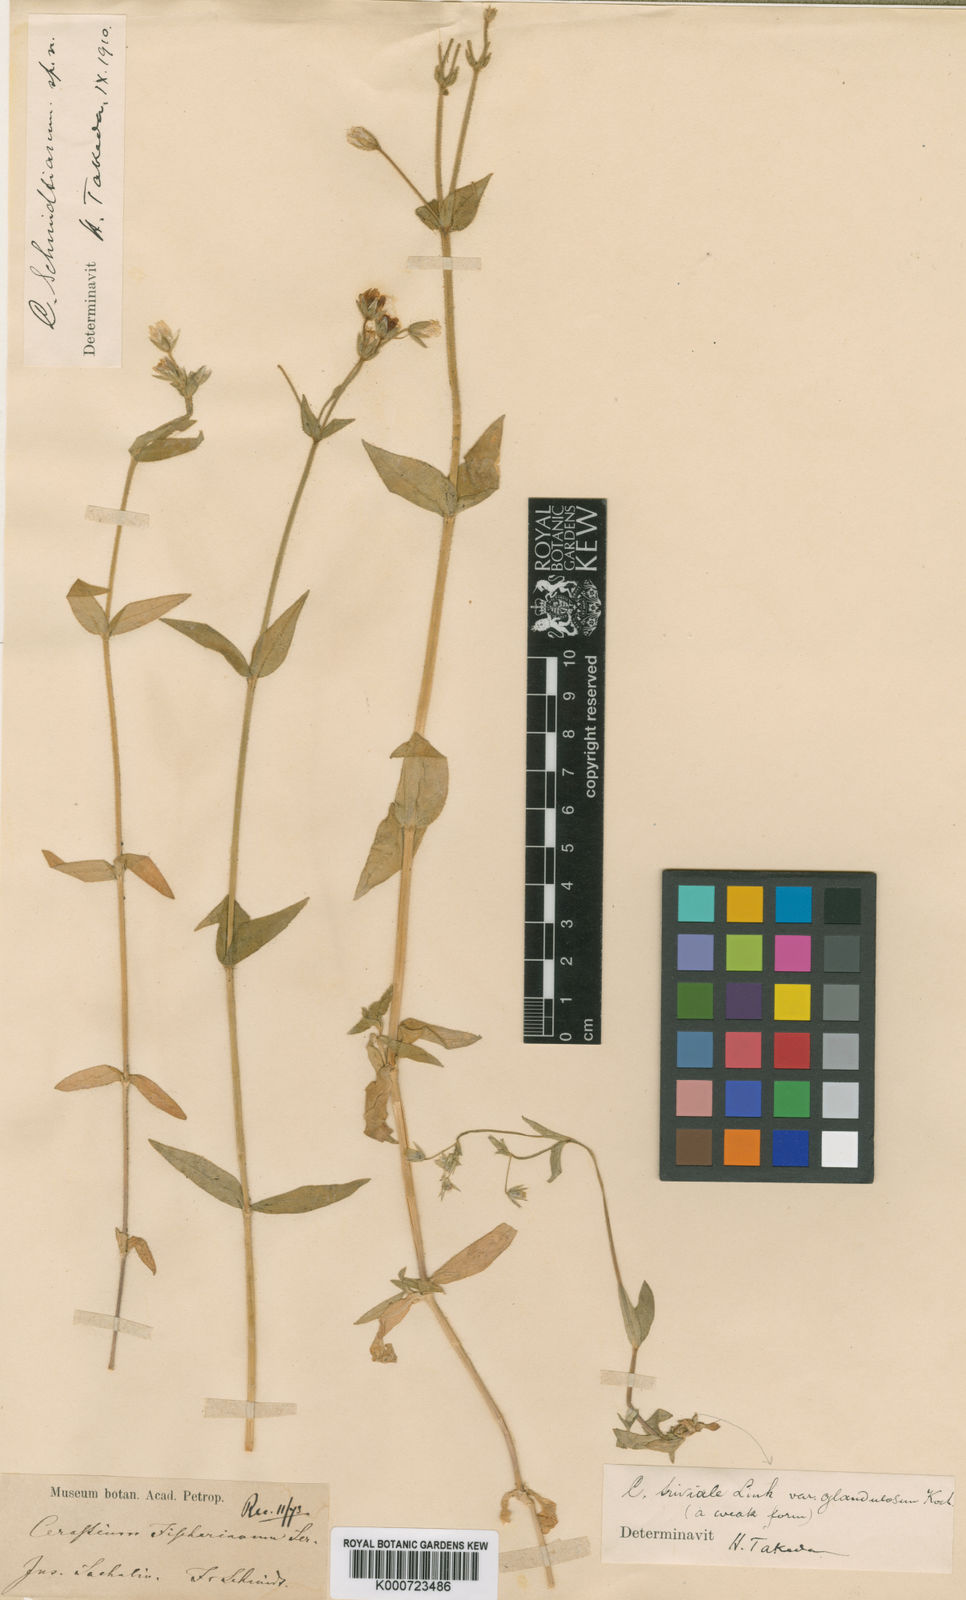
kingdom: Plantae
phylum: Tracheophyta
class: Magnoliopsida
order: Caryophyllales
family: Caryophyllaceae
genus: Cerastium
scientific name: Cerastium fischerianum
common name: Fischer's chickweed
